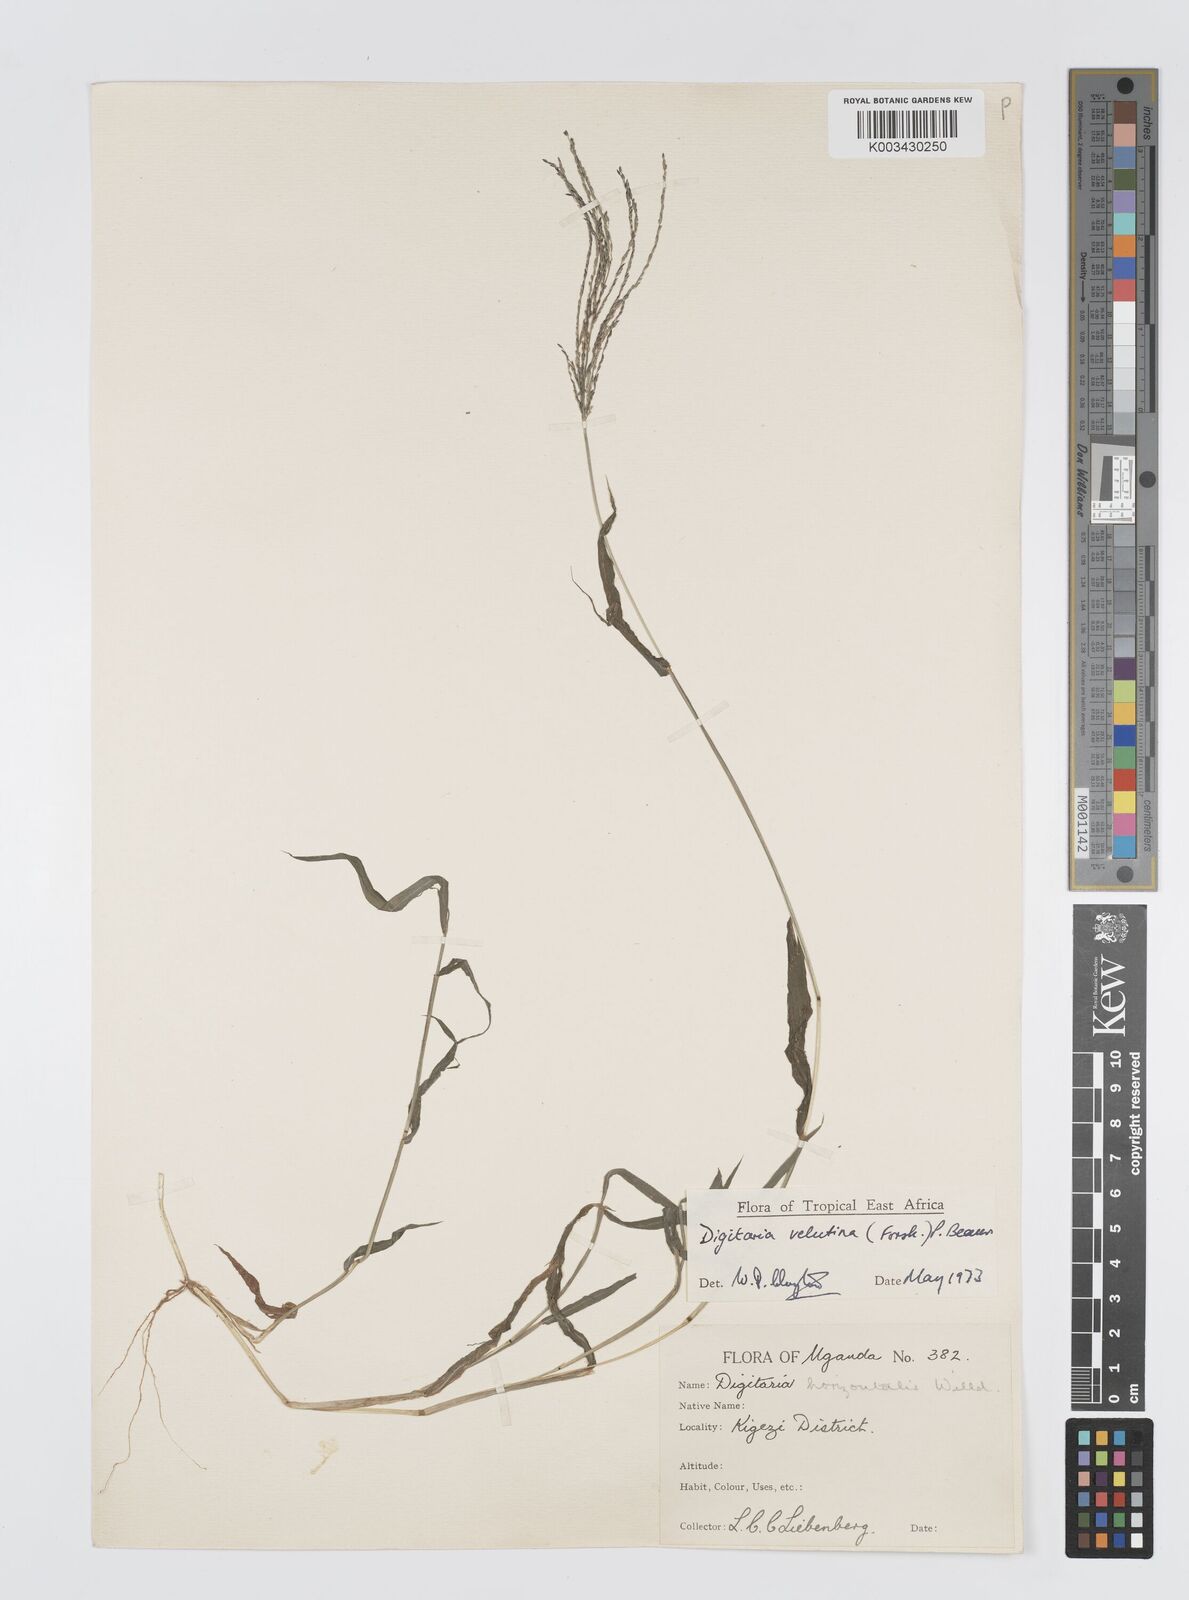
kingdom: Plantae
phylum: Tracheophyta
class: Liliopsida
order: Poales
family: Poaceae
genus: Digitaria
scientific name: Digitaria velutina
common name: Long-plume finger grass
